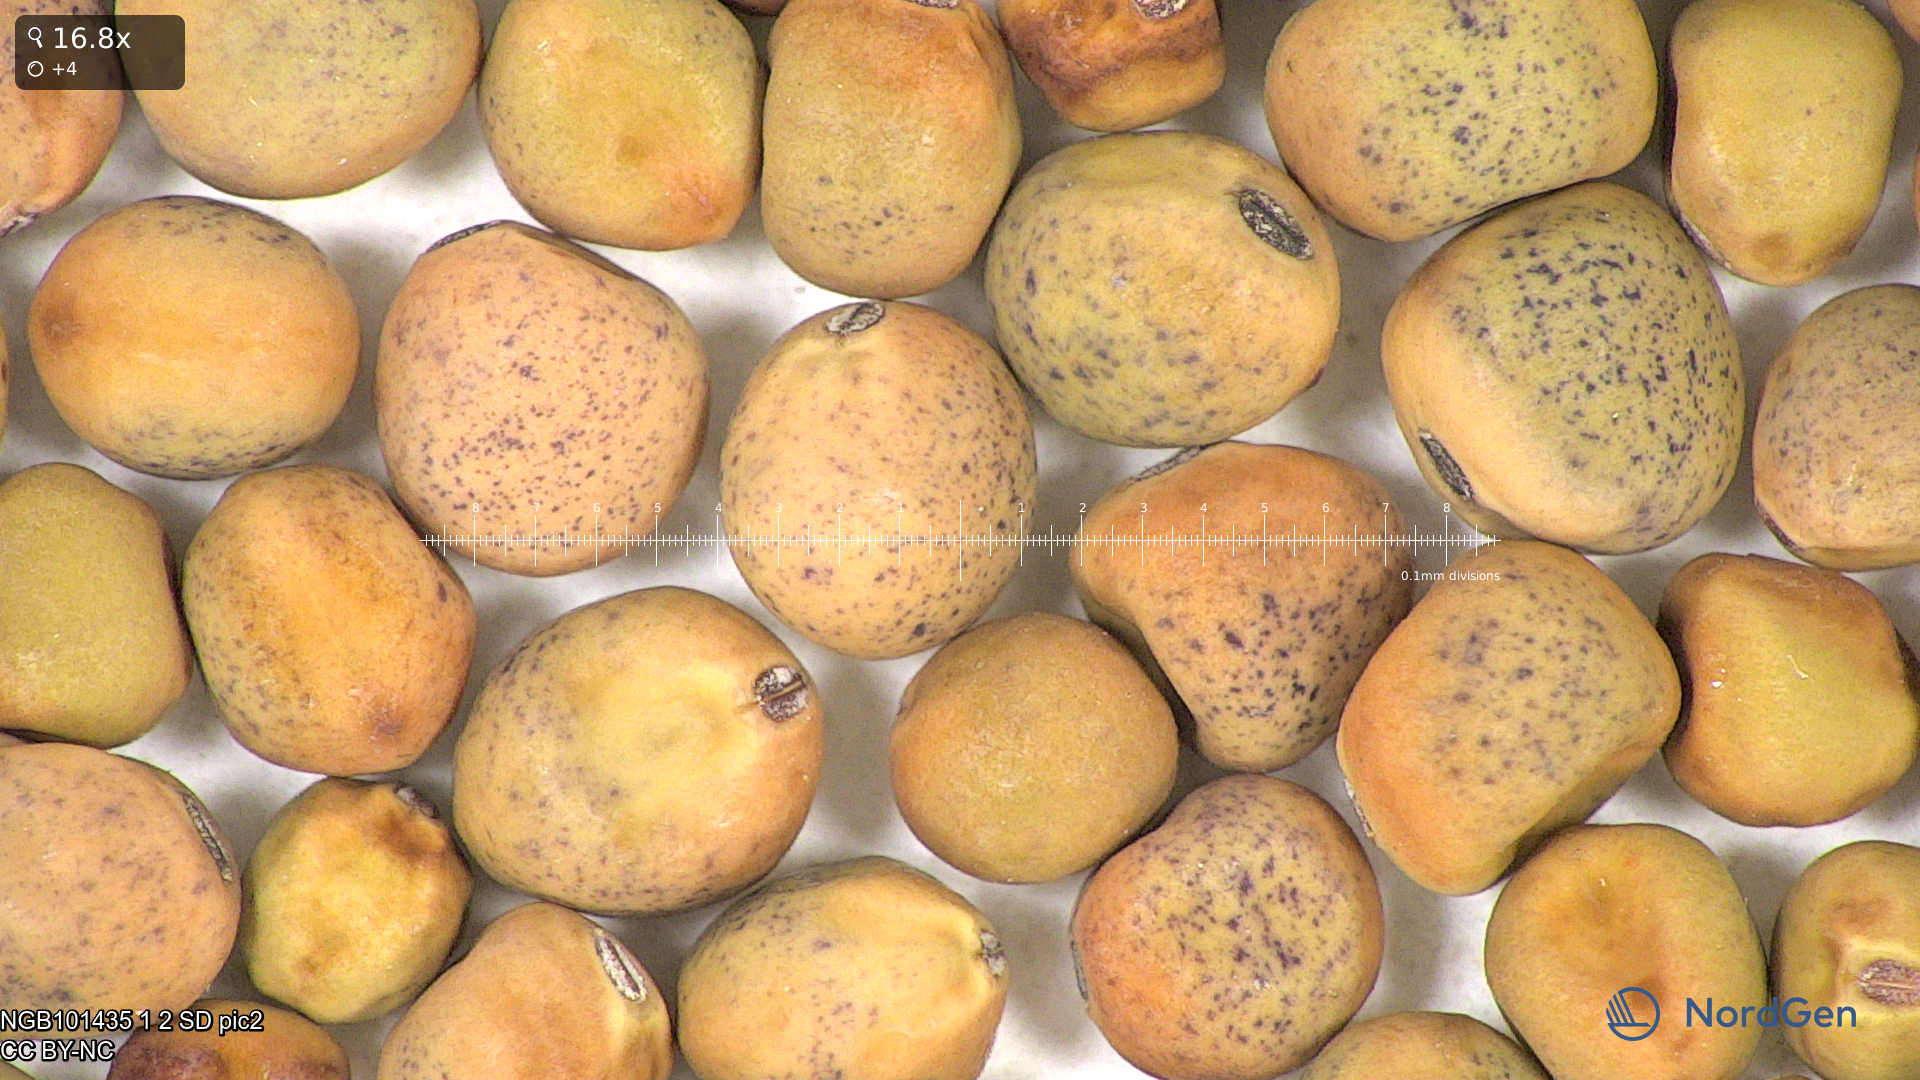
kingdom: Plantae
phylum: Tracheophyta
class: Magnoliopsida
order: Fabales
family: Fabaceae
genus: Lathyrus
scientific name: Lathyrus oleraceus
